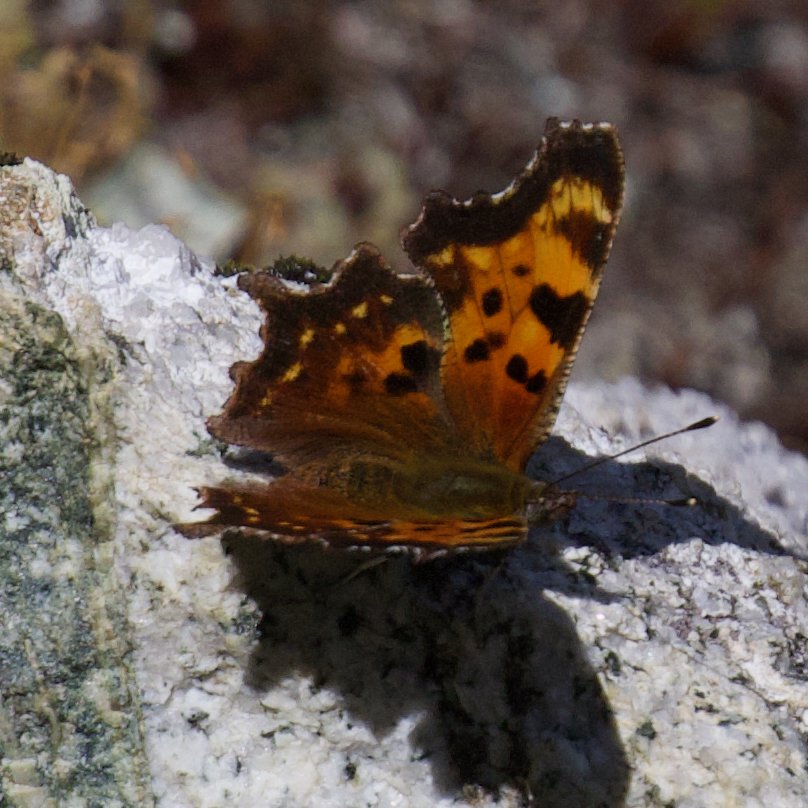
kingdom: Animalia
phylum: Arthropoda
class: Insecta
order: Lepidoptera
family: Nymphalidae
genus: Polygonia
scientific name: Polygonia faunus
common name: Green Comma
